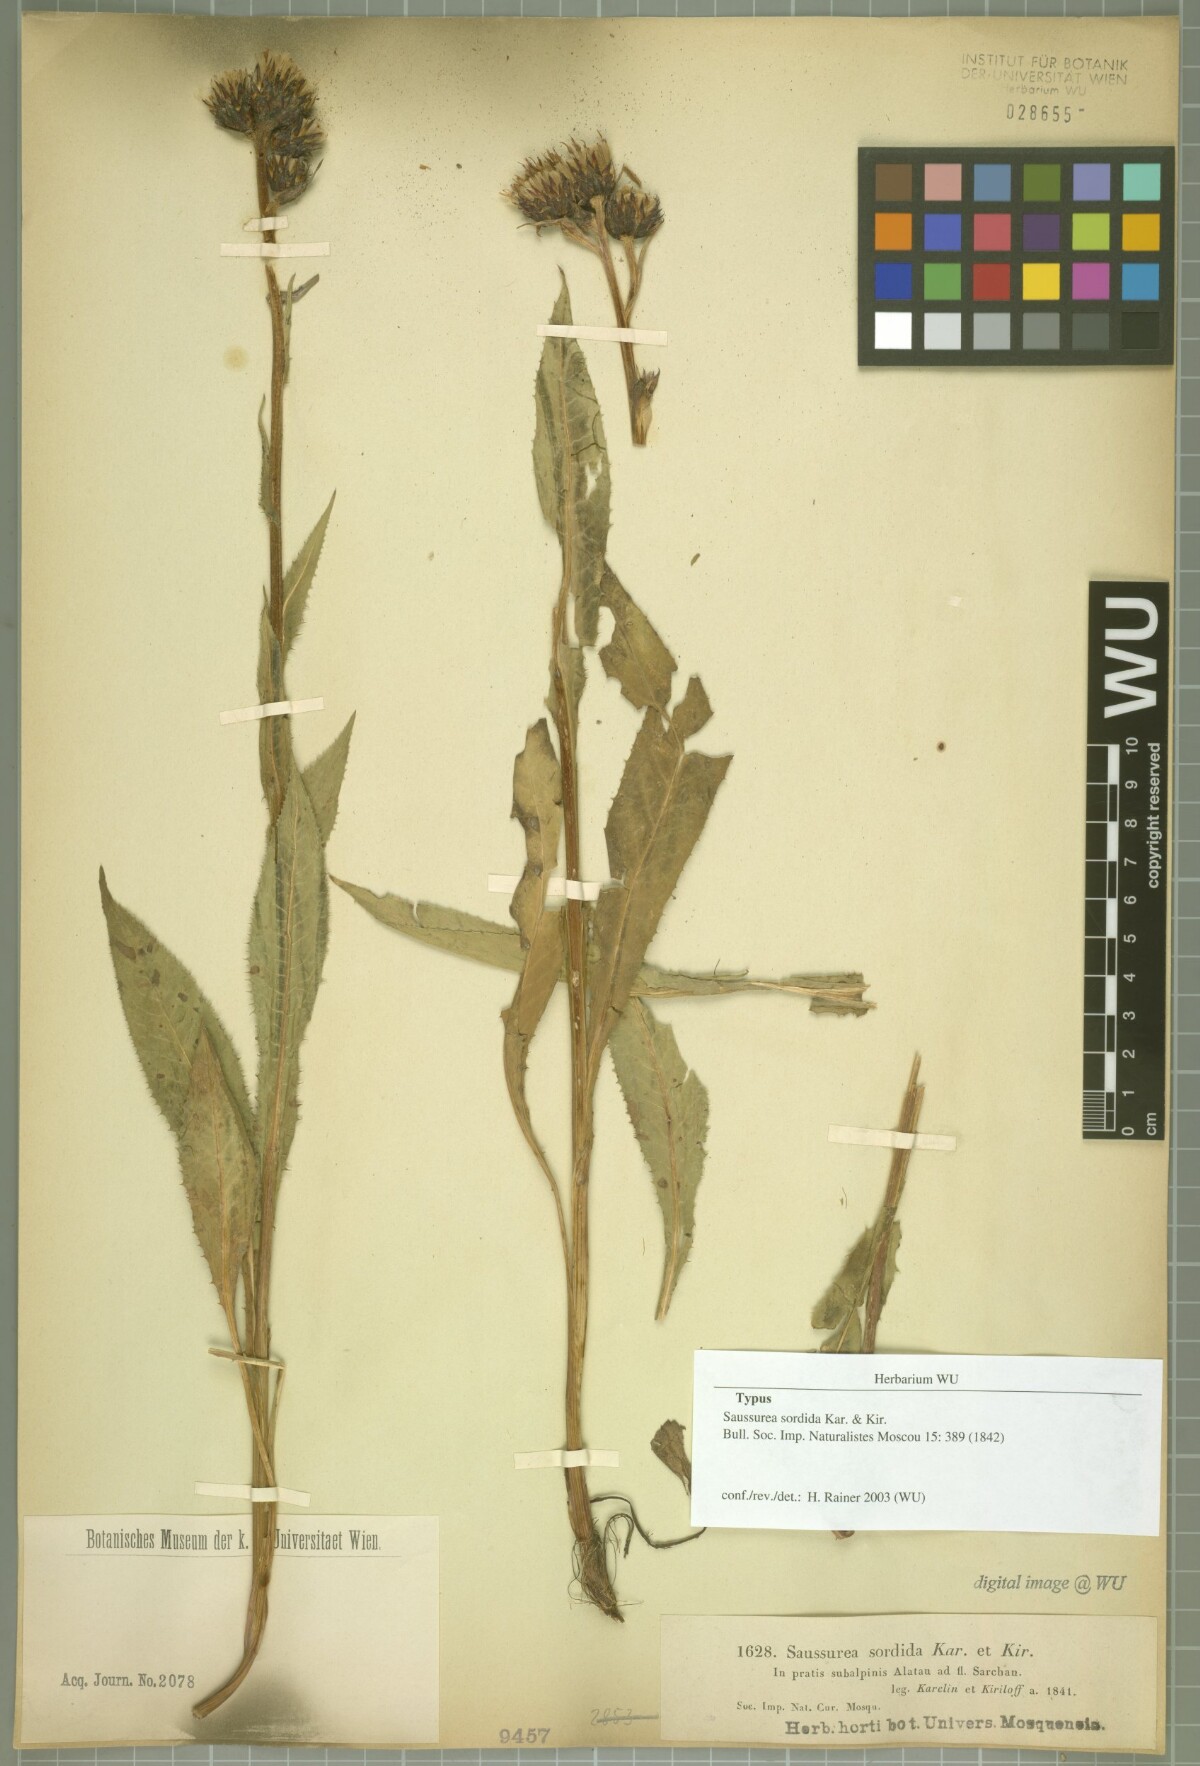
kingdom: Plantae
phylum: Tracheophyta
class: Magnoliopsida
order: Asterales
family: Asteraceae
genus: Saussurea
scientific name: Saussurea sordida
